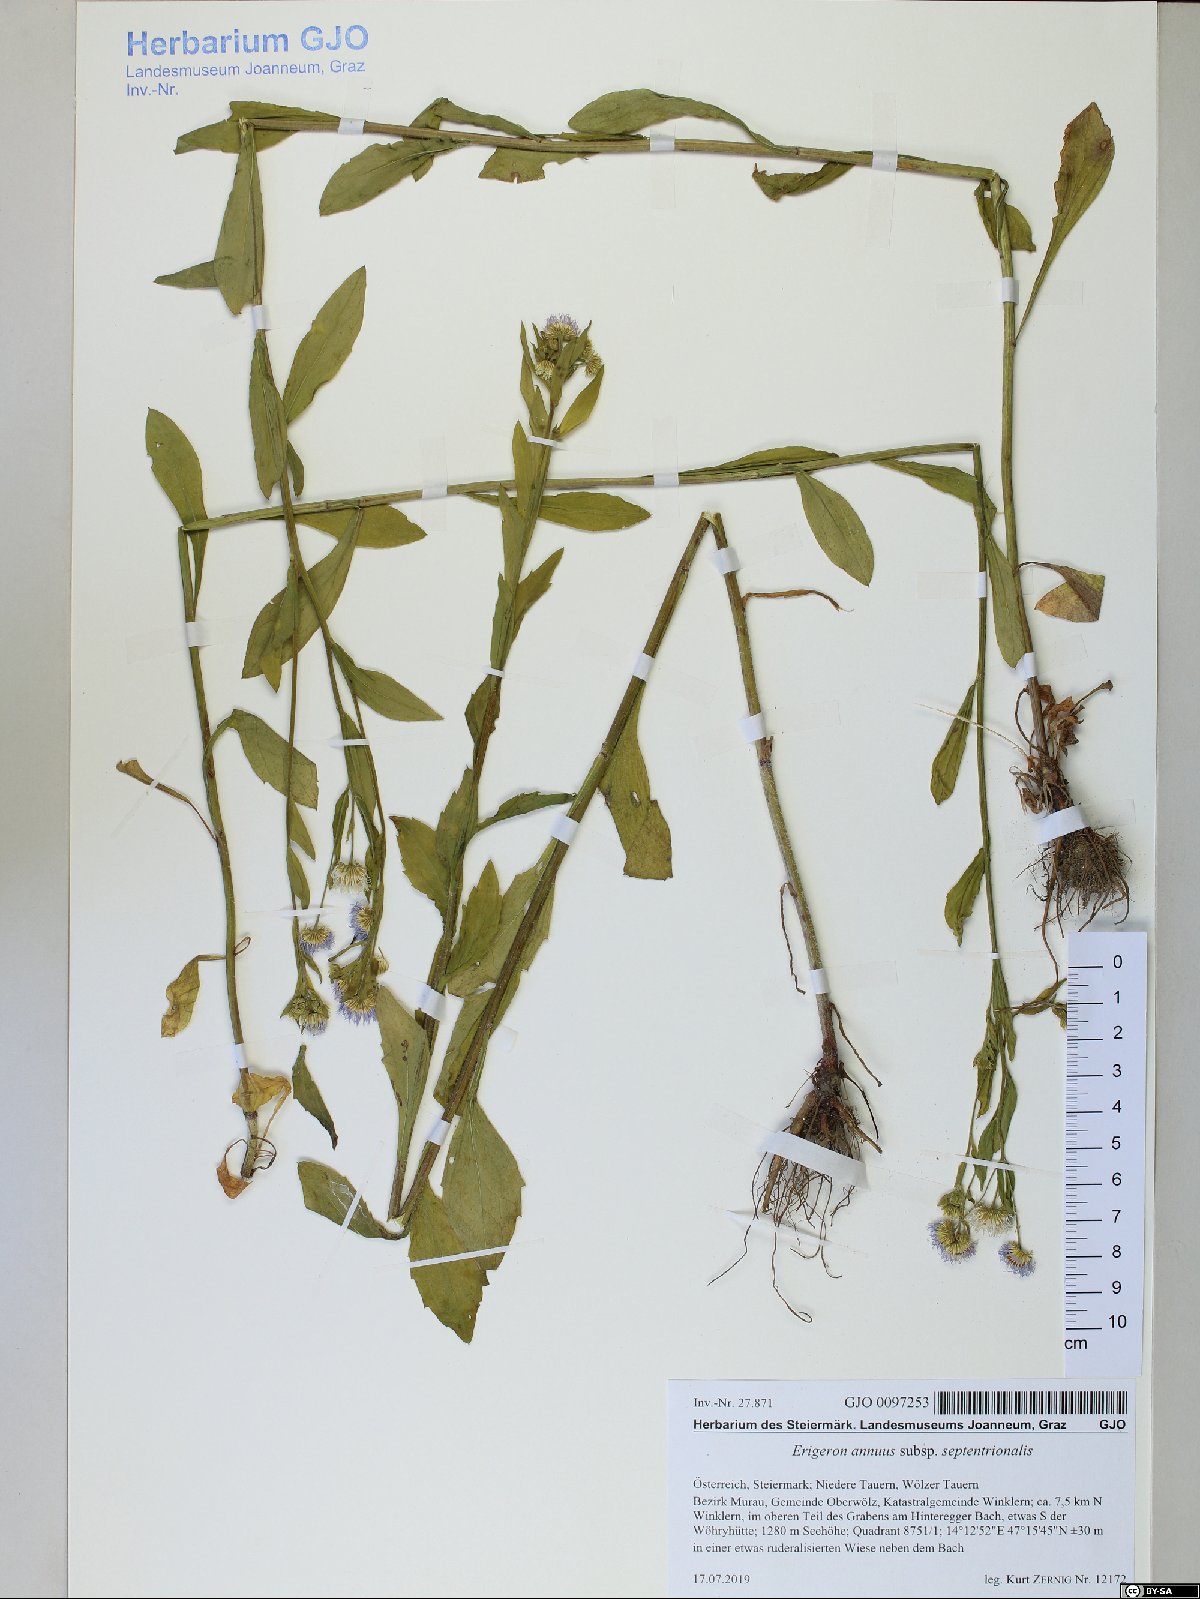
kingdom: Plantae
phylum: Tracheophyta
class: Magnoliopsida
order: Asterales
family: Asteraceae
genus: Erigeron
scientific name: Erigeron annuus
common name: Tall fleabane
